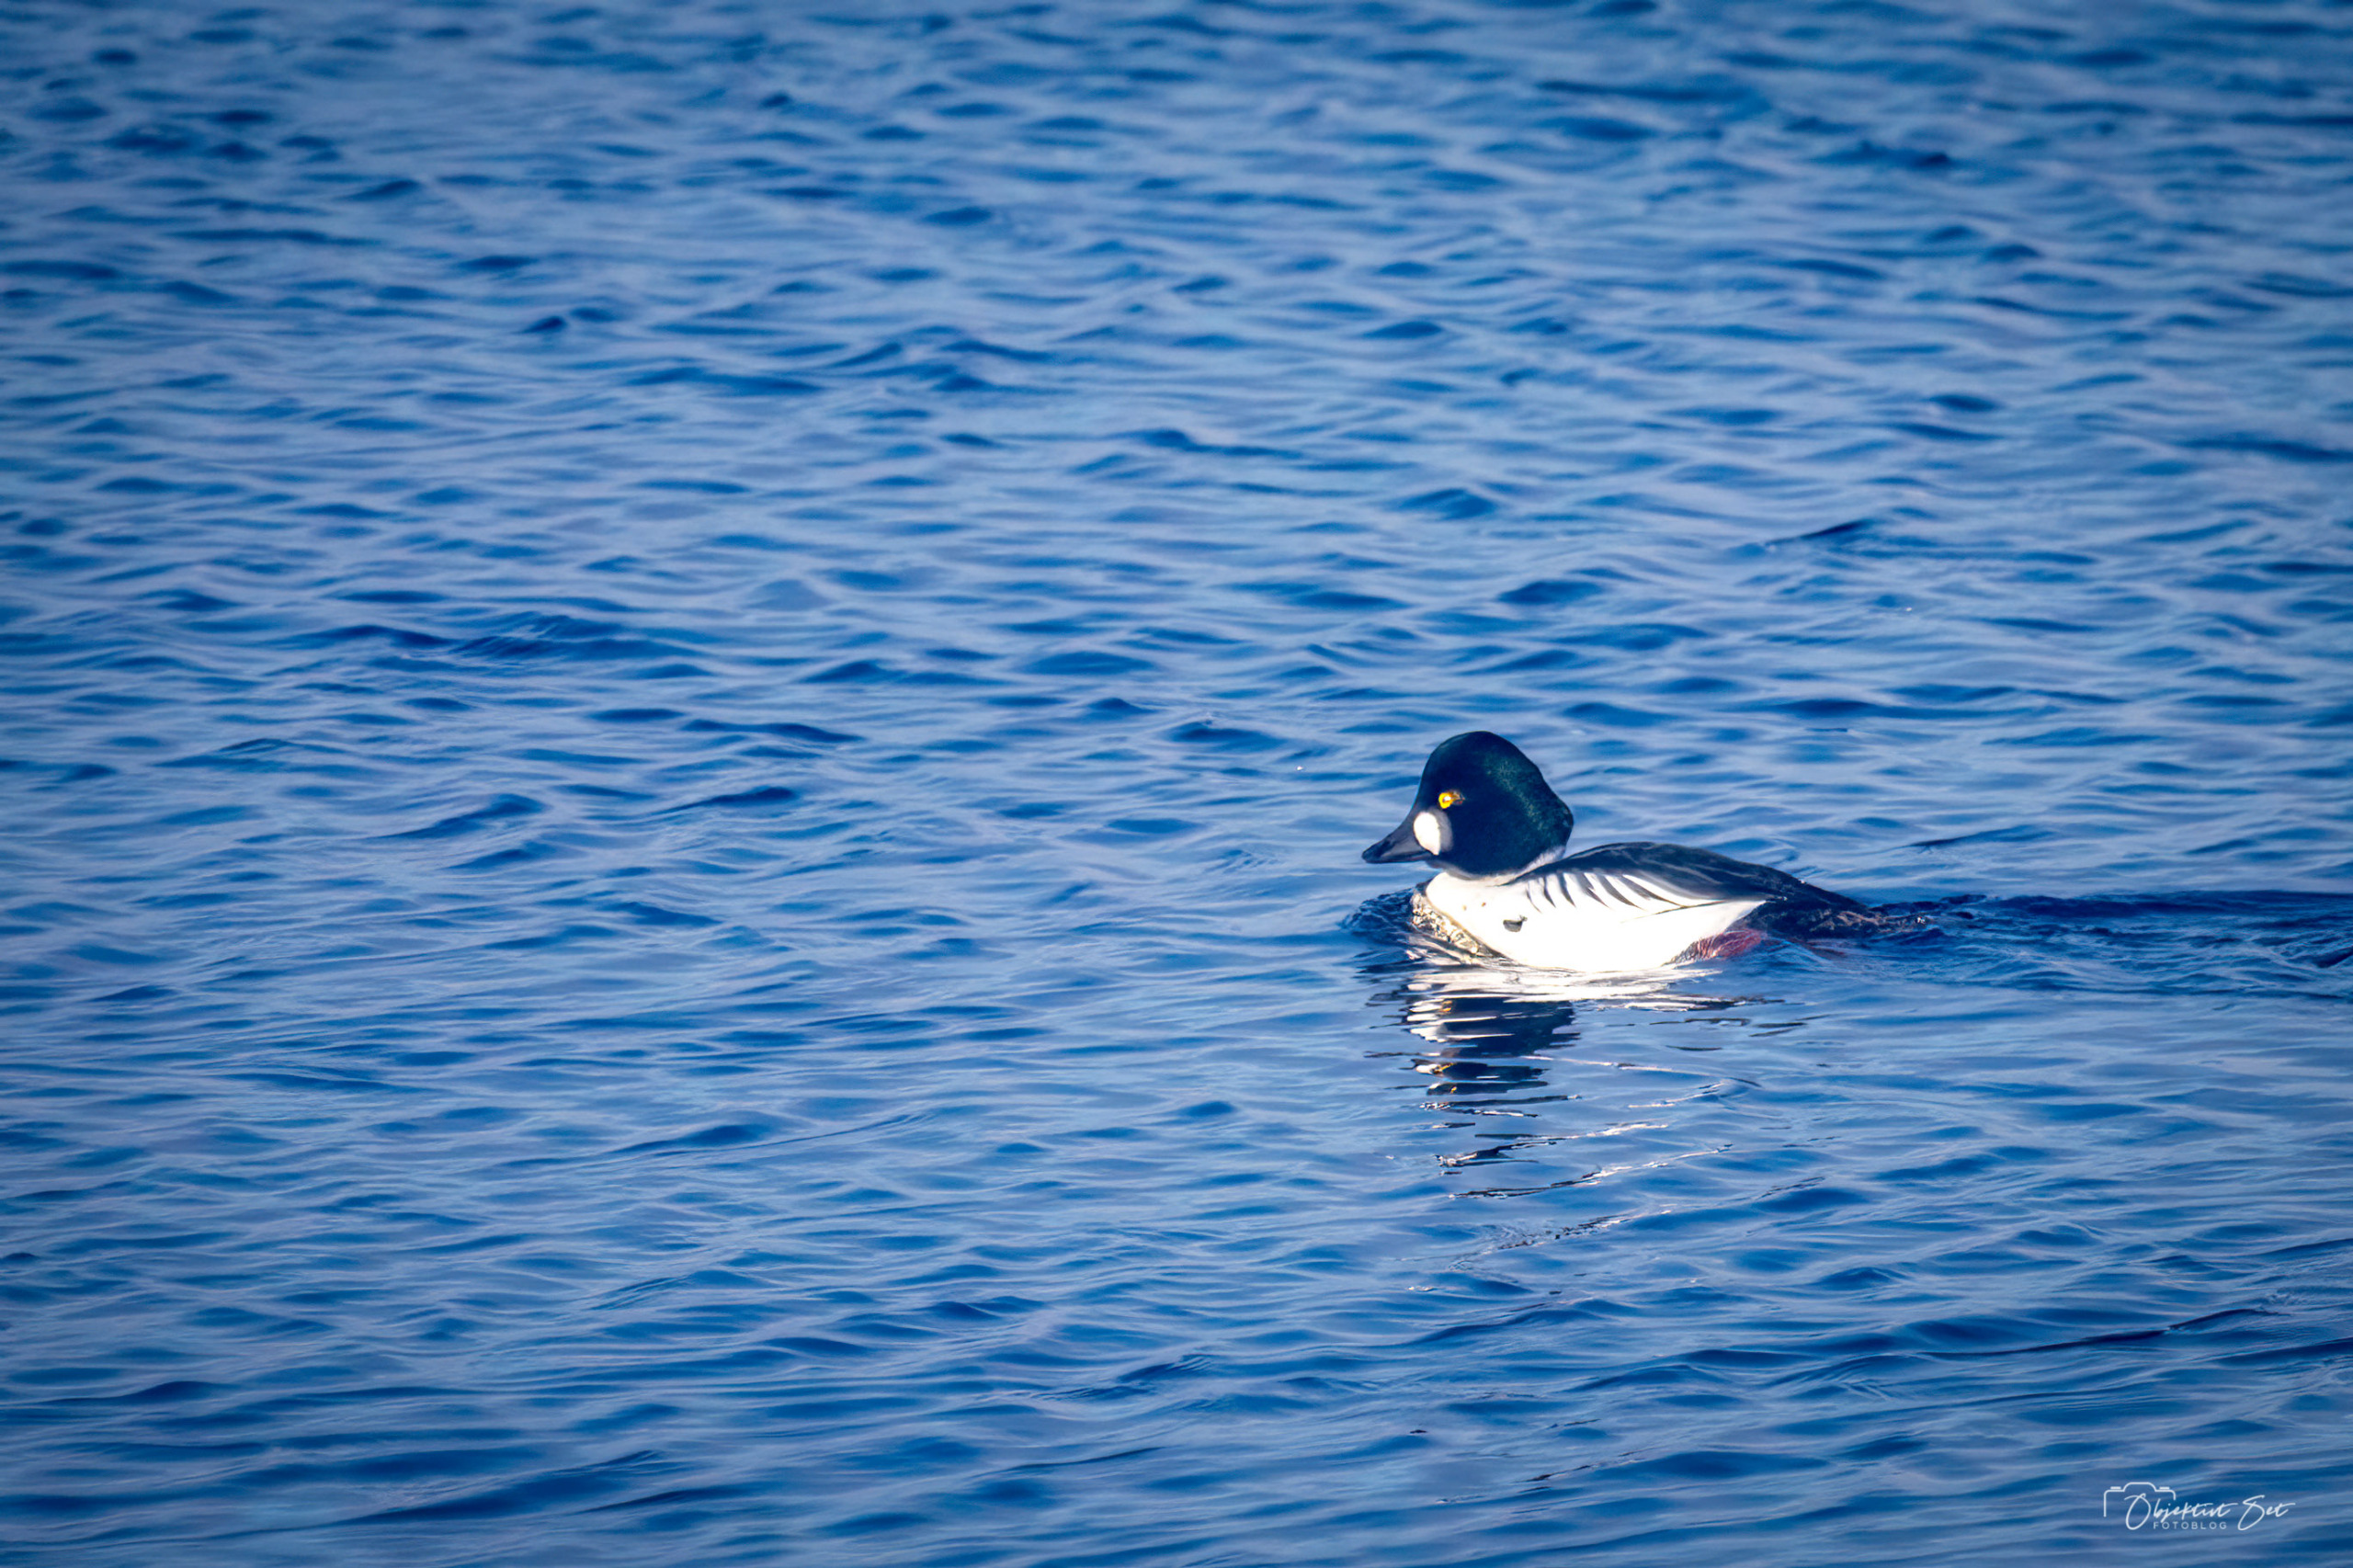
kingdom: Animalia
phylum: Chordata
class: Aves
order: Anseriformes
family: Anatidae
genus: Bucephala
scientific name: Bucephala clangula
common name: Hvinand
